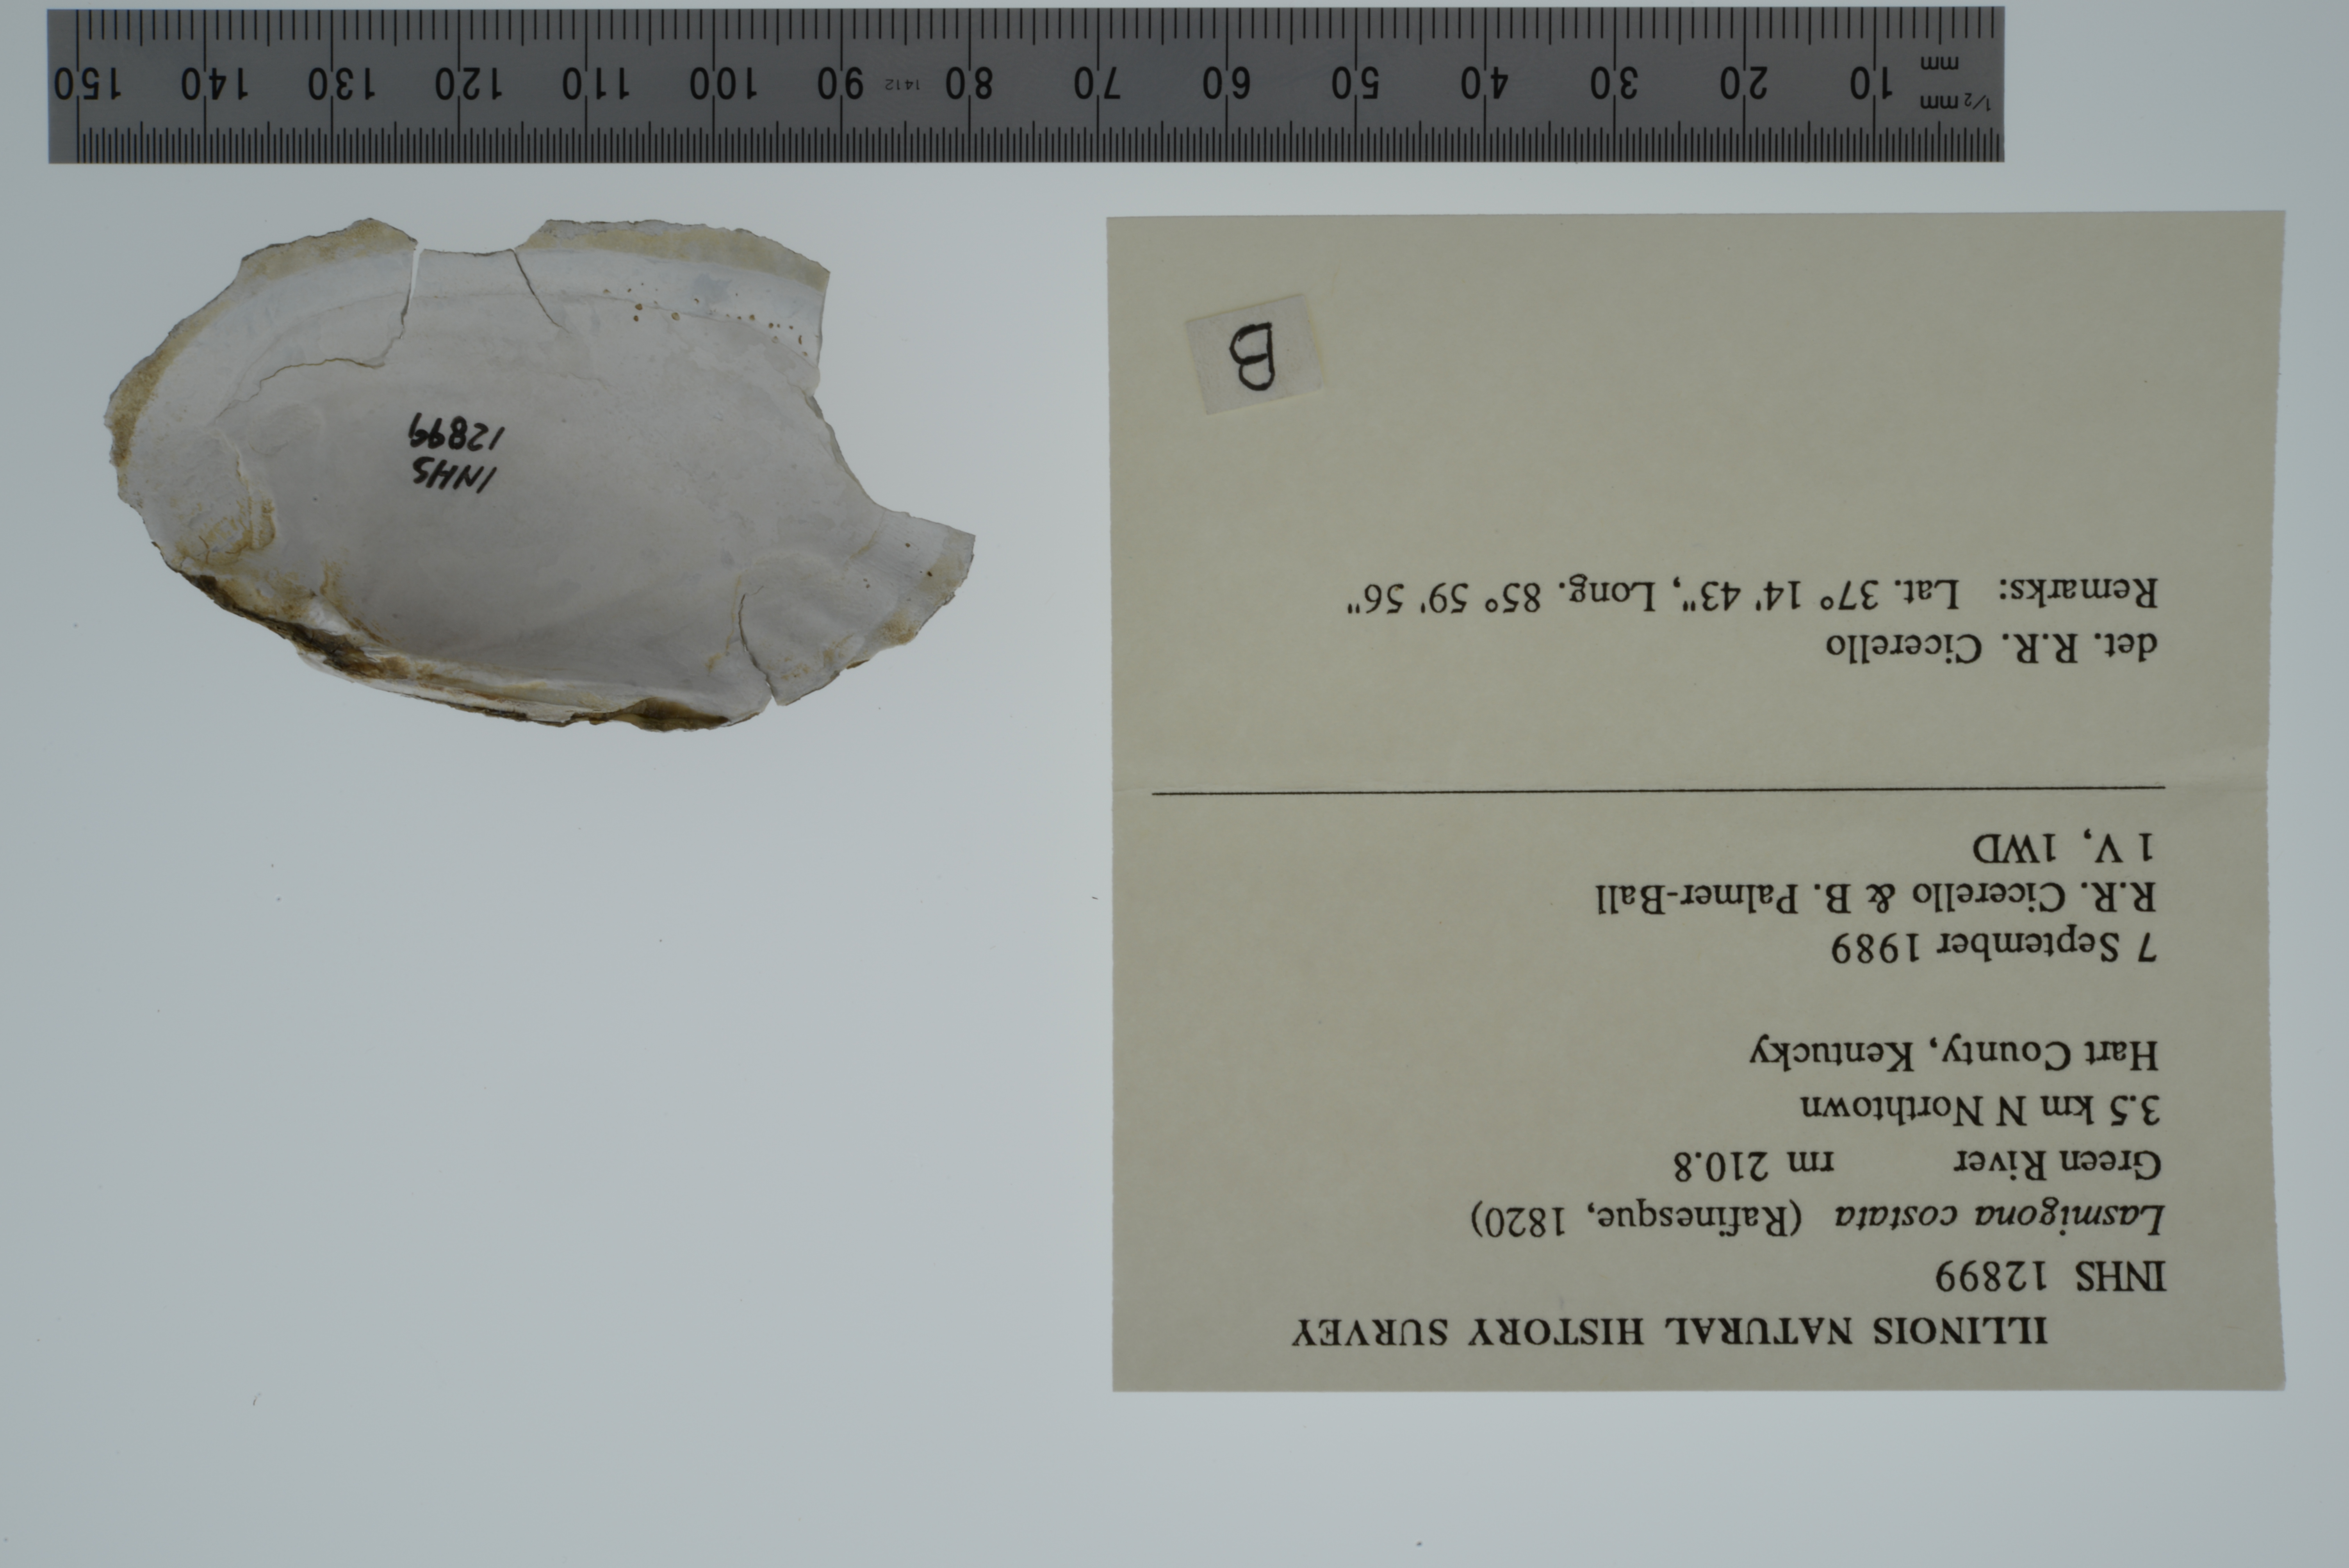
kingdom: Animalia
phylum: Mollusca
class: Bivalvia
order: Unionida
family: Unionidae
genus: Lasmigona
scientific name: Lasmigona costata
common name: Flutedshell
